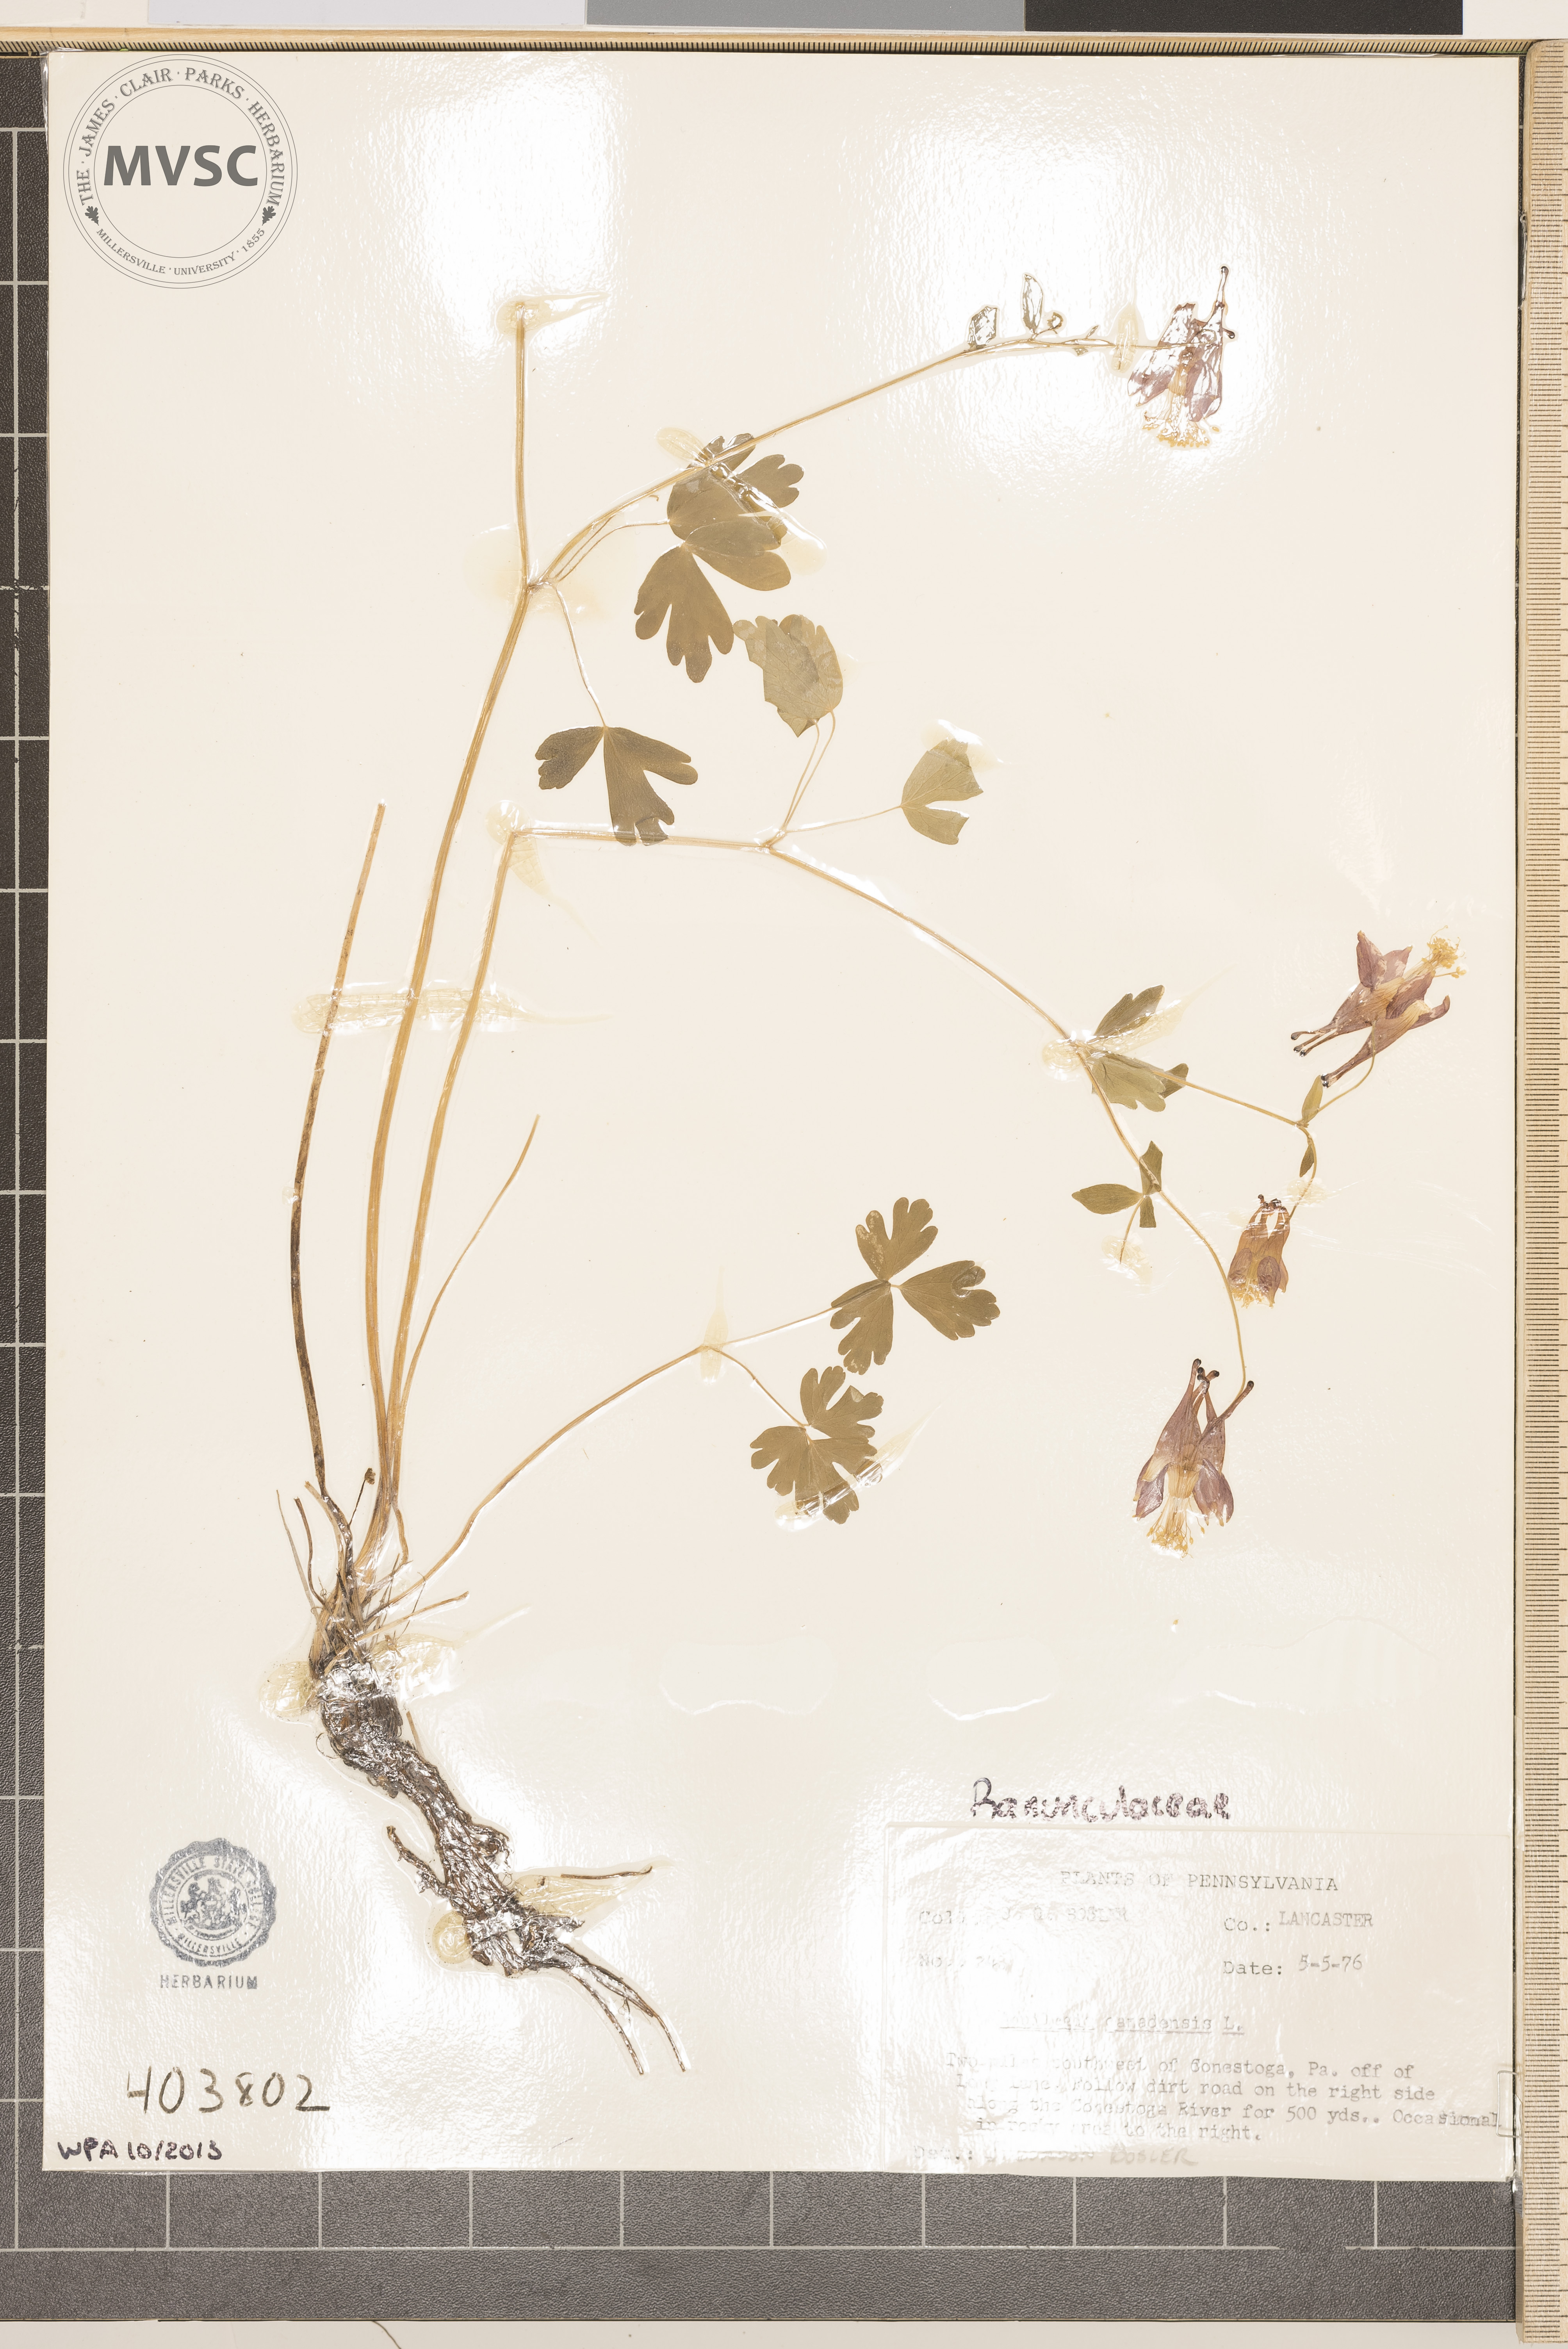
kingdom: Plantae
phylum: Tracheophyta
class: Magnoliopsida
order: Ranunculales
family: Ranunculaceae
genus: Aquilegia
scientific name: Aquilegia canadensis
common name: American columbine
